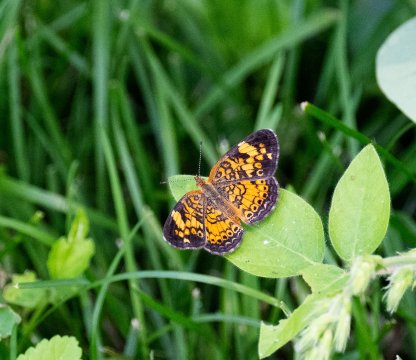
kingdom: Animalia
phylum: Arthropoda
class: Insecta
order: Lepidoptera
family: Nymphalidae
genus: Phyciodes
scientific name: Phyciodes tharos
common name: Pearl Crescent
